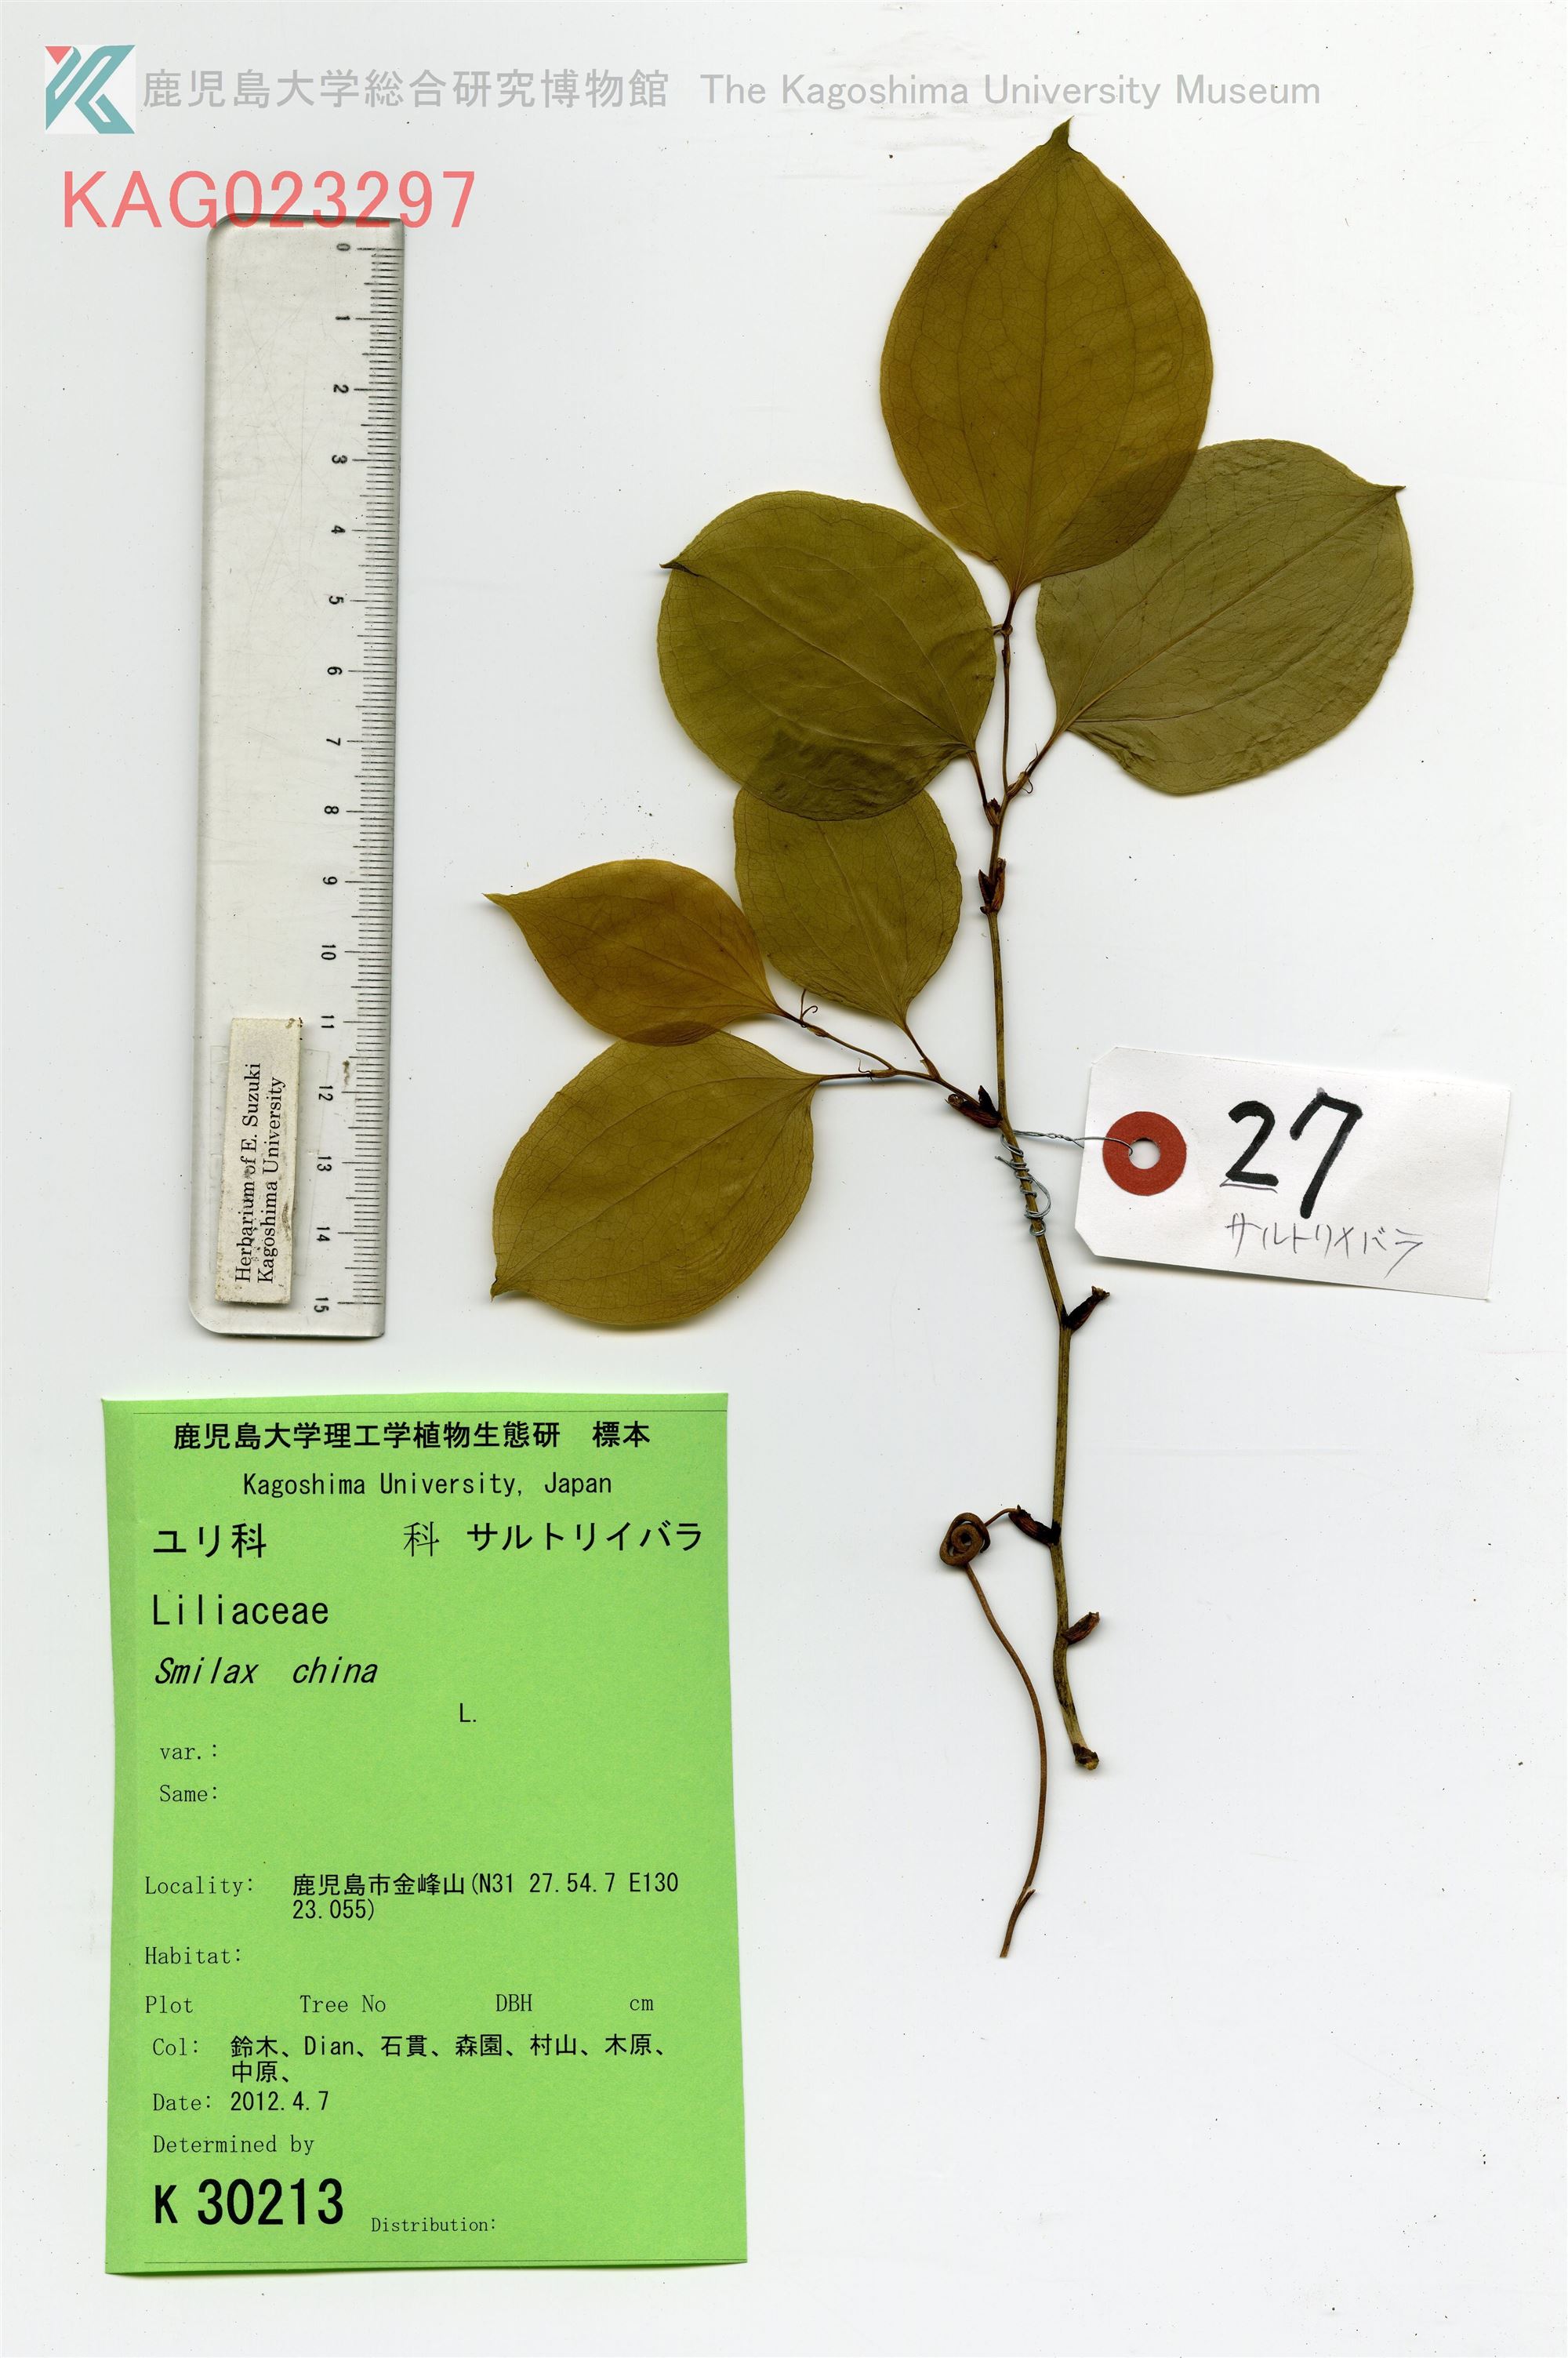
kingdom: Plantae
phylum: Tracheophyta
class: Liliopsida
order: Liliales
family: Smilacaceae
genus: Smilax
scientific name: Smilax china
